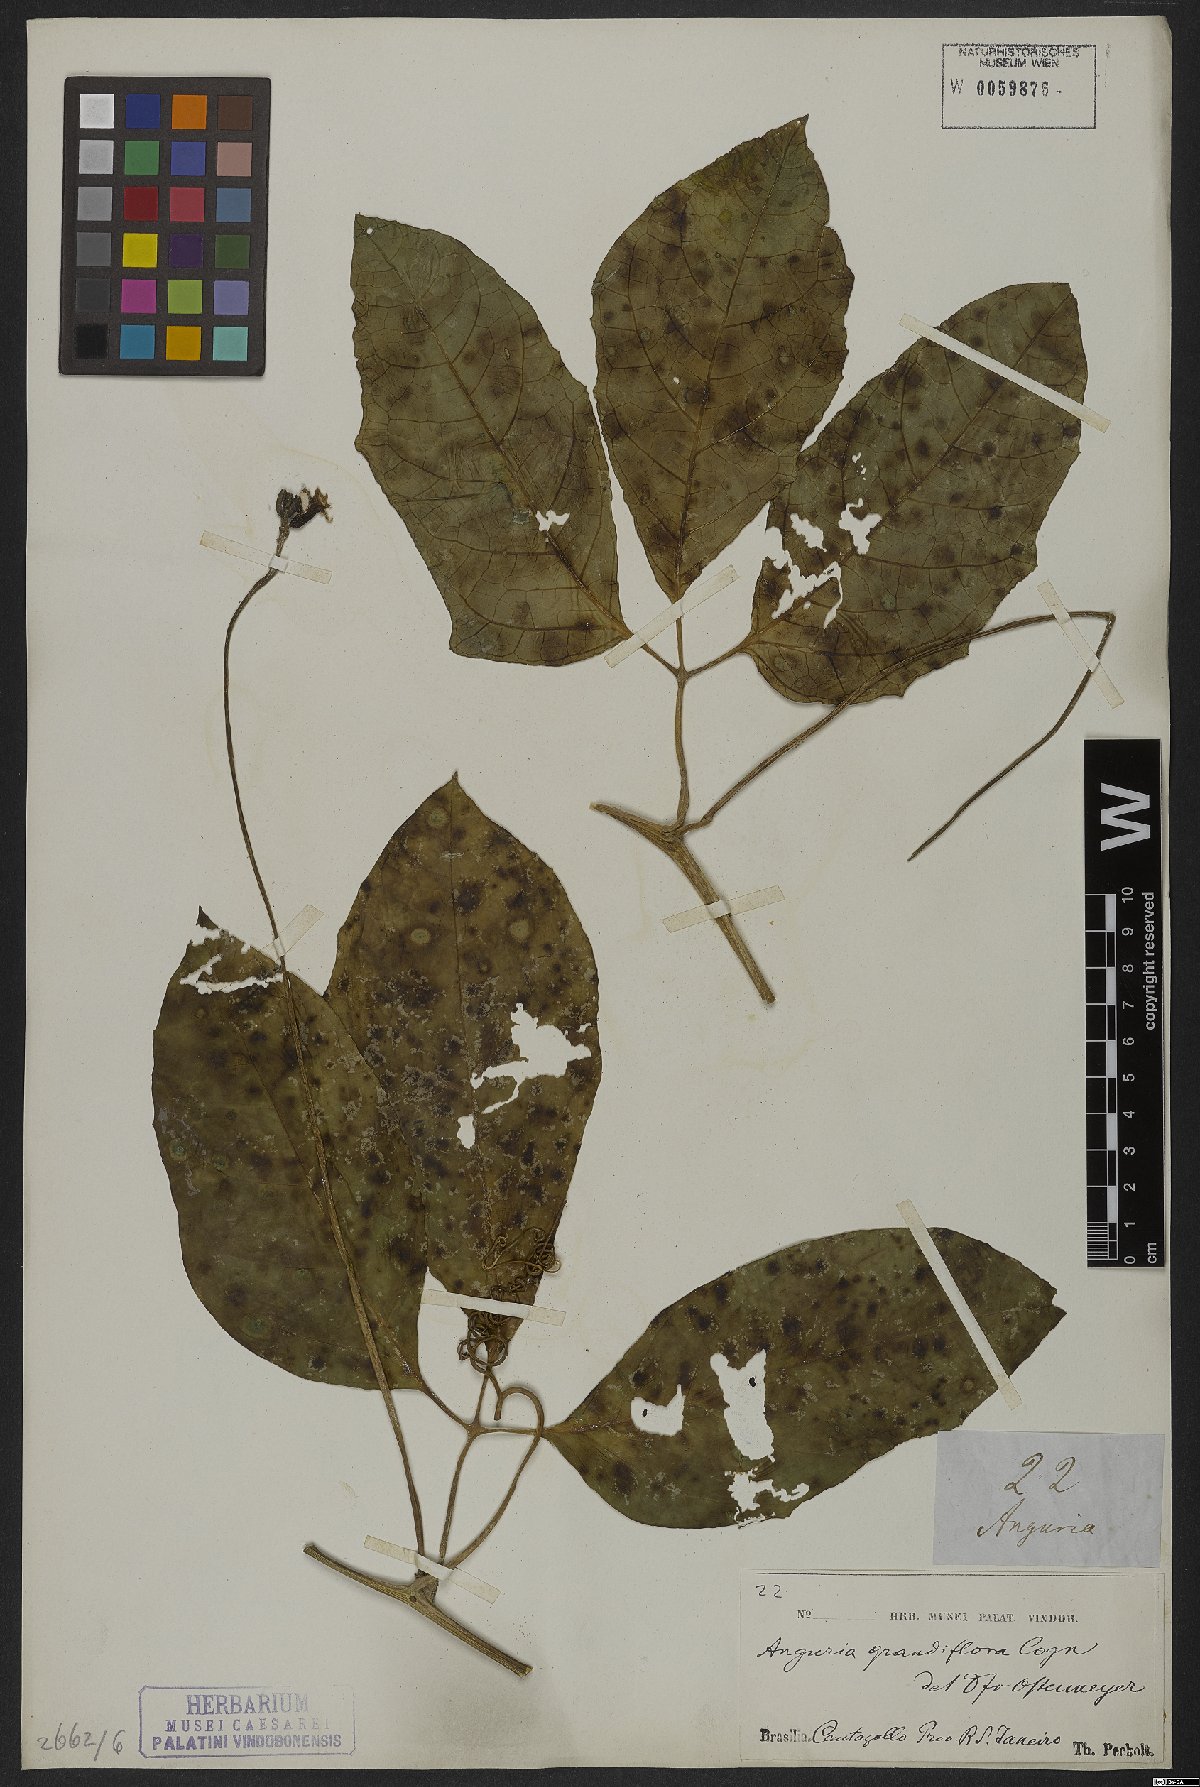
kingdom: Plantae
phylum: Tracheophyta
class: Magnoliopsida
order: Cucurbitales
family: Cucurbitaceae
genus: Psiguria
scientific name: Psiguria ternata
